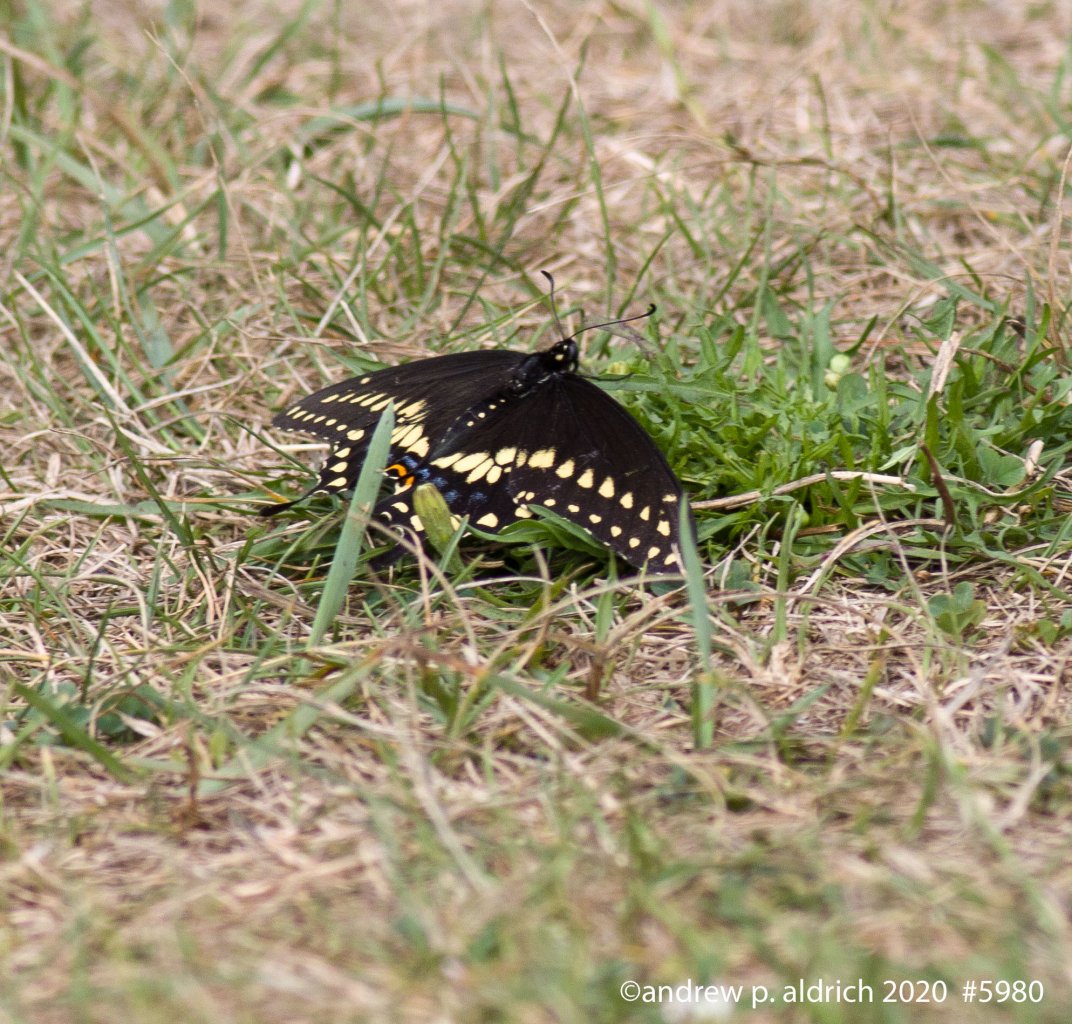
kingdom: Animalia
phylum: Arthropoda
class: Insecta
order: Lepidoptera
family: Papilionidae
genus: Papilio
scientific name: Papilio polyxenes
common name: Black Swallowtail
